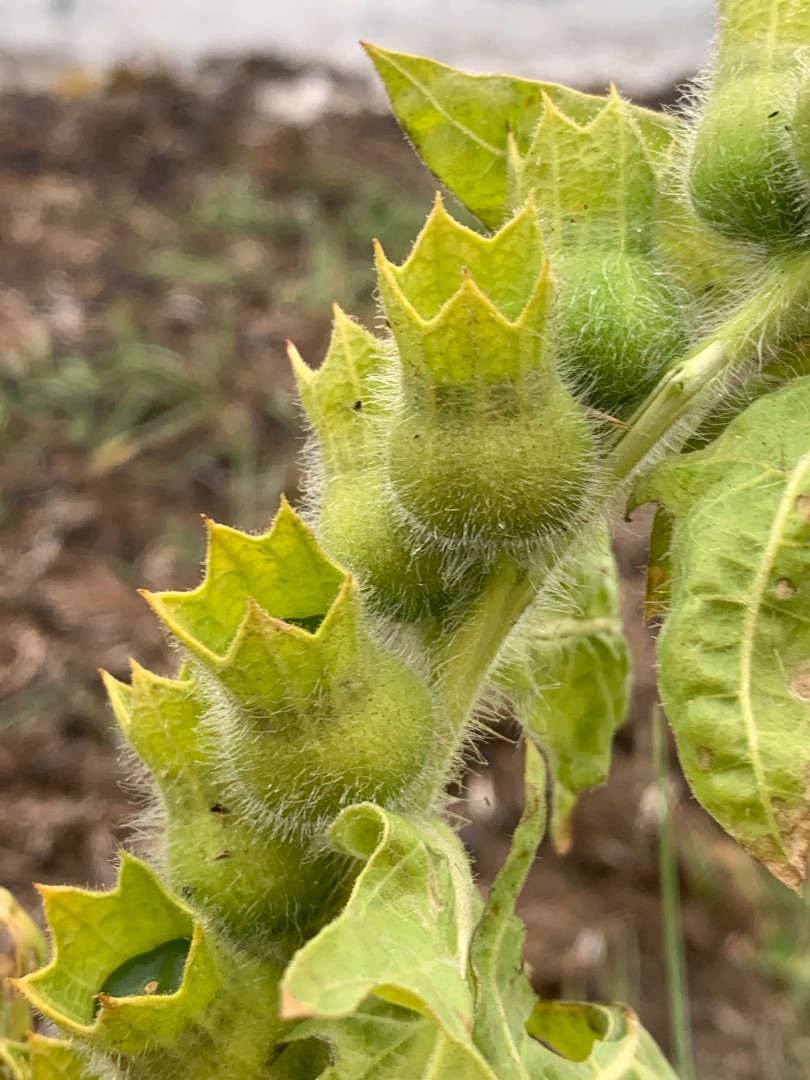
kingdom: Plantae
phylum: Tracheophyta
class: Magnoliopsida
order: Solanales
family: Solanaceae
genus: Hyoscyamus
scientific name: Hyoscyamus niger
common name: Bulmeurt
